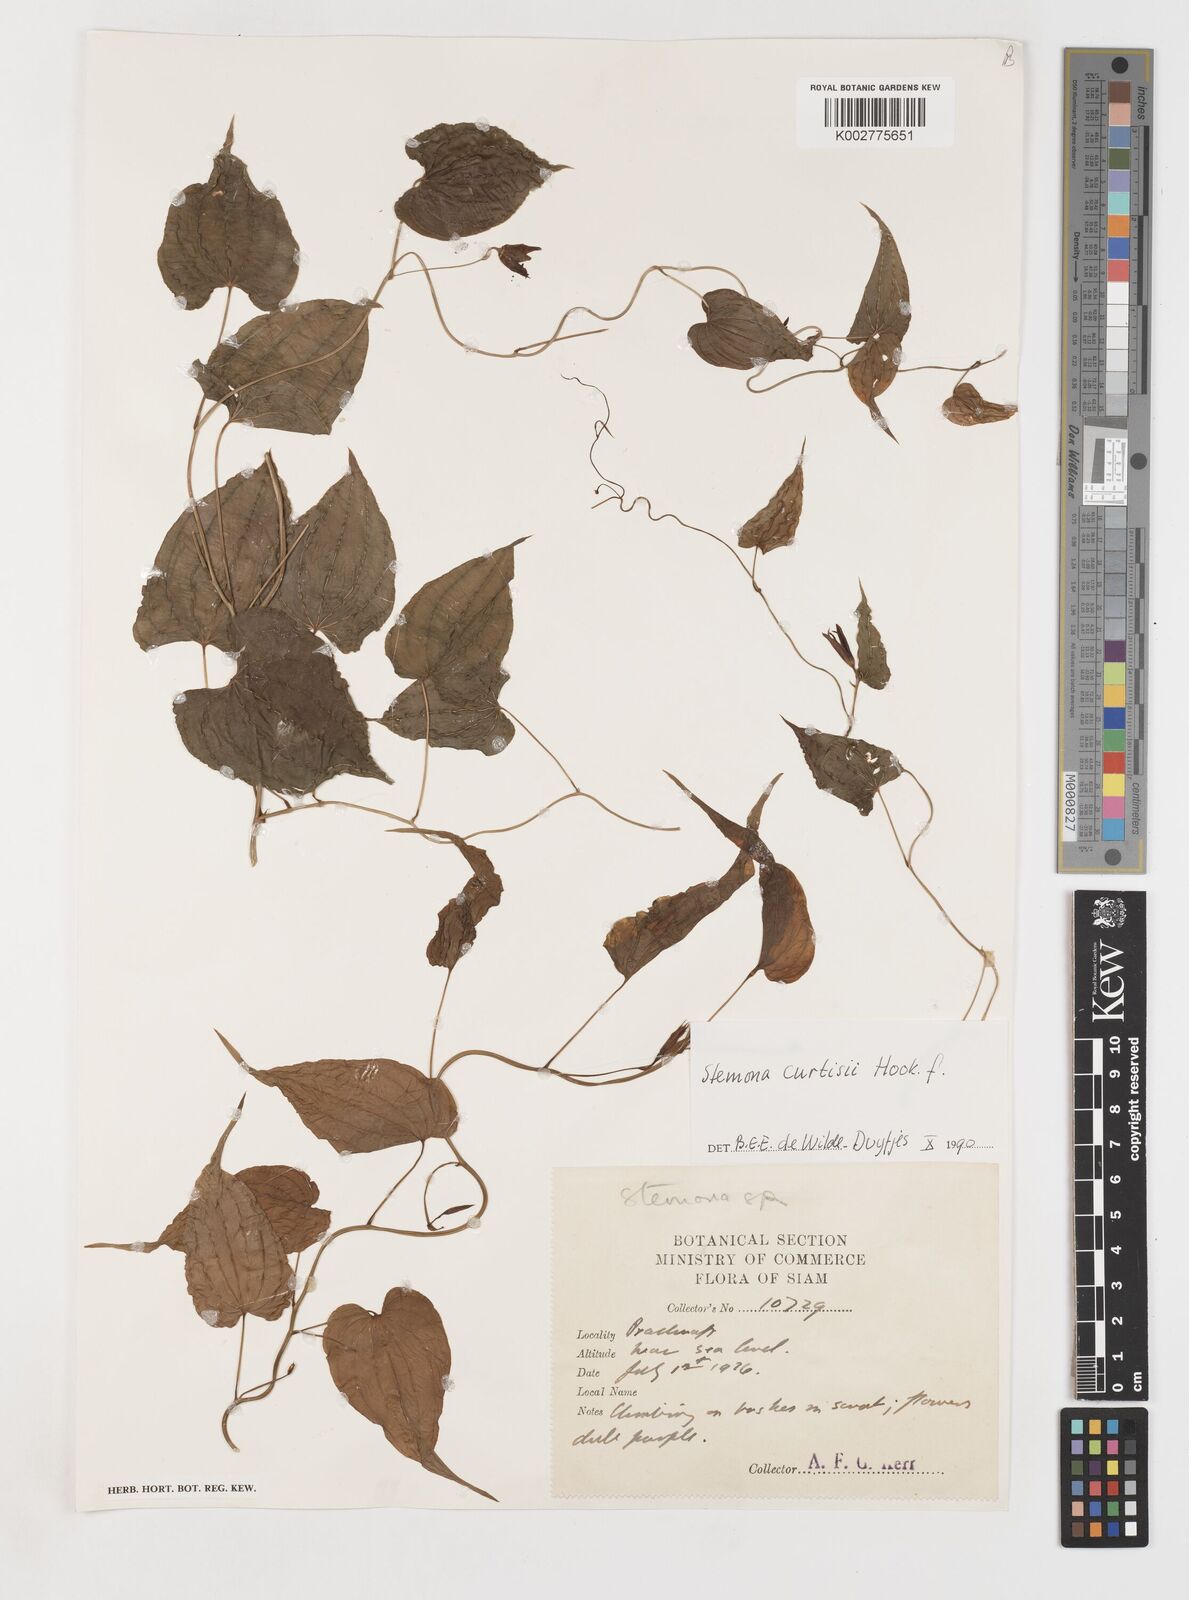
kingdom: Plantae
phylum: Tracheophyta
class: Liliopsida
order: Pandanales
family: Stemonaceae
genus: Stemona
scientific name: Stemona curtisii
